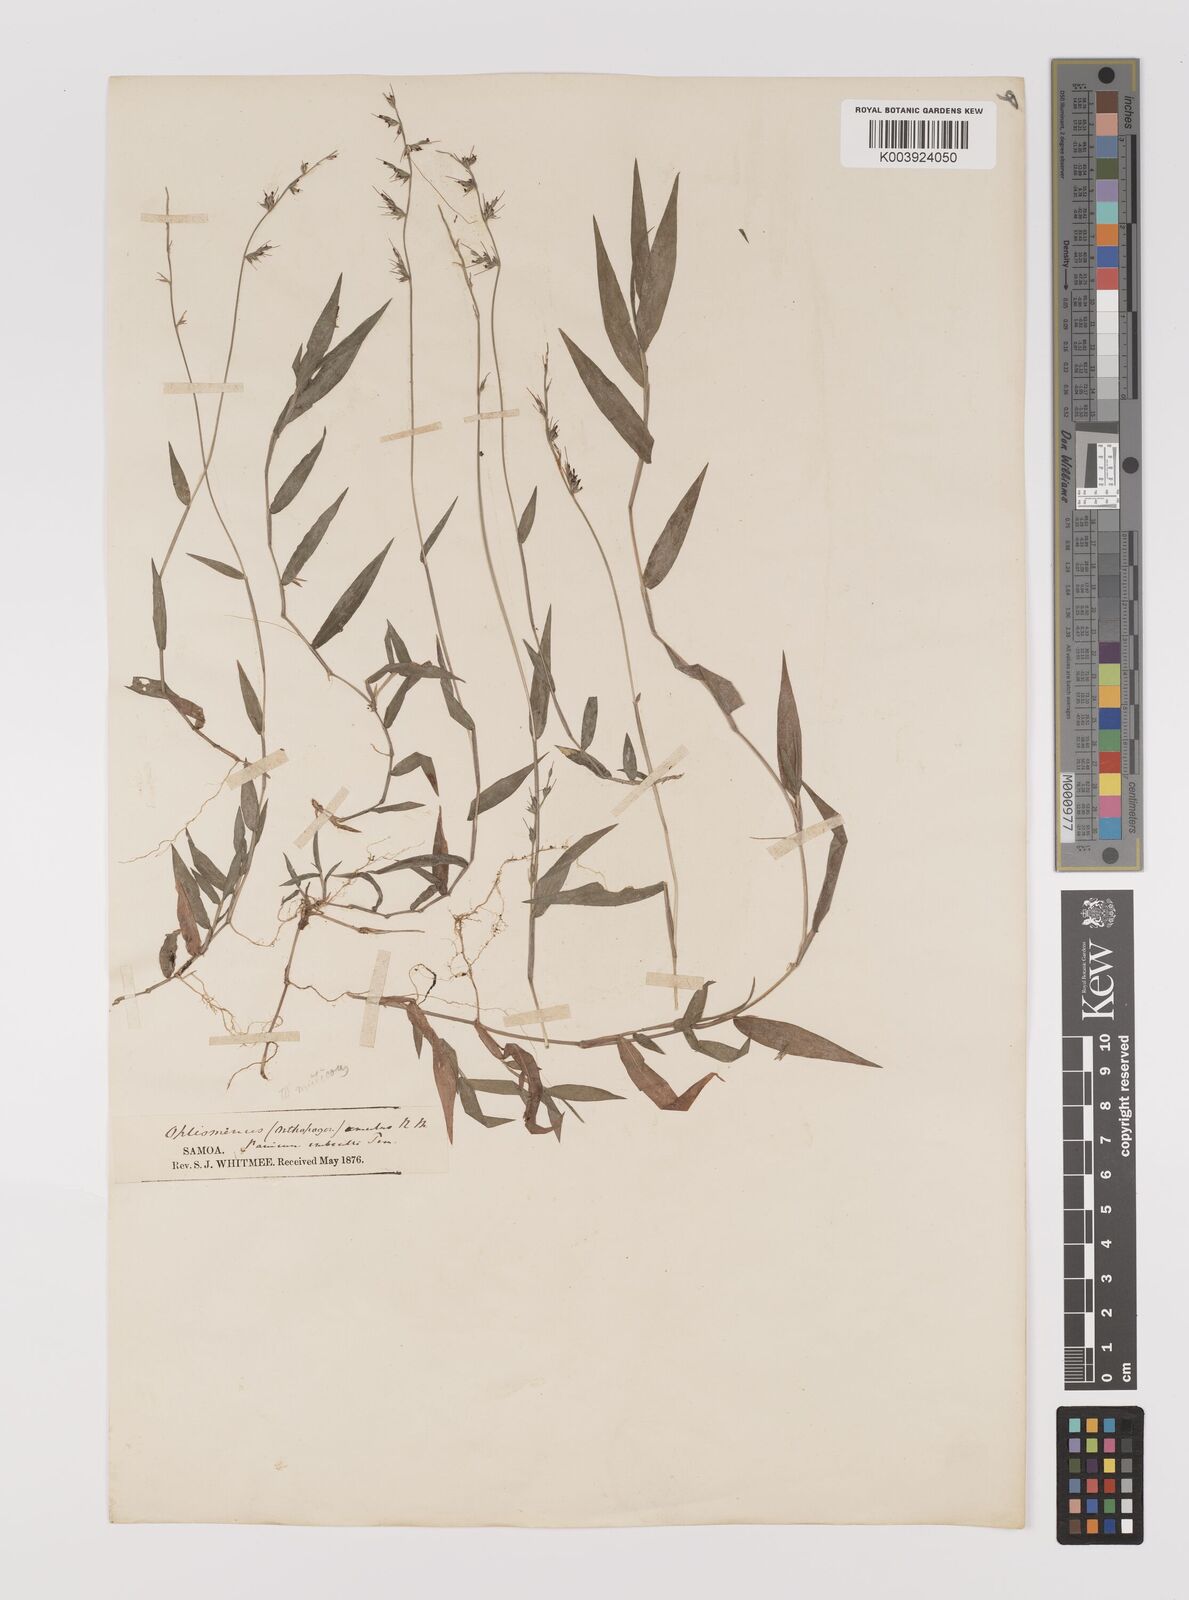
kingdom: Plantae
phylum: Tracheophyta
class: Liliopsida
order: Poales
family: Poaceae
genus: Oplismenus
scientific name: Oplismenus hirtellus
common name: Basketgrass
